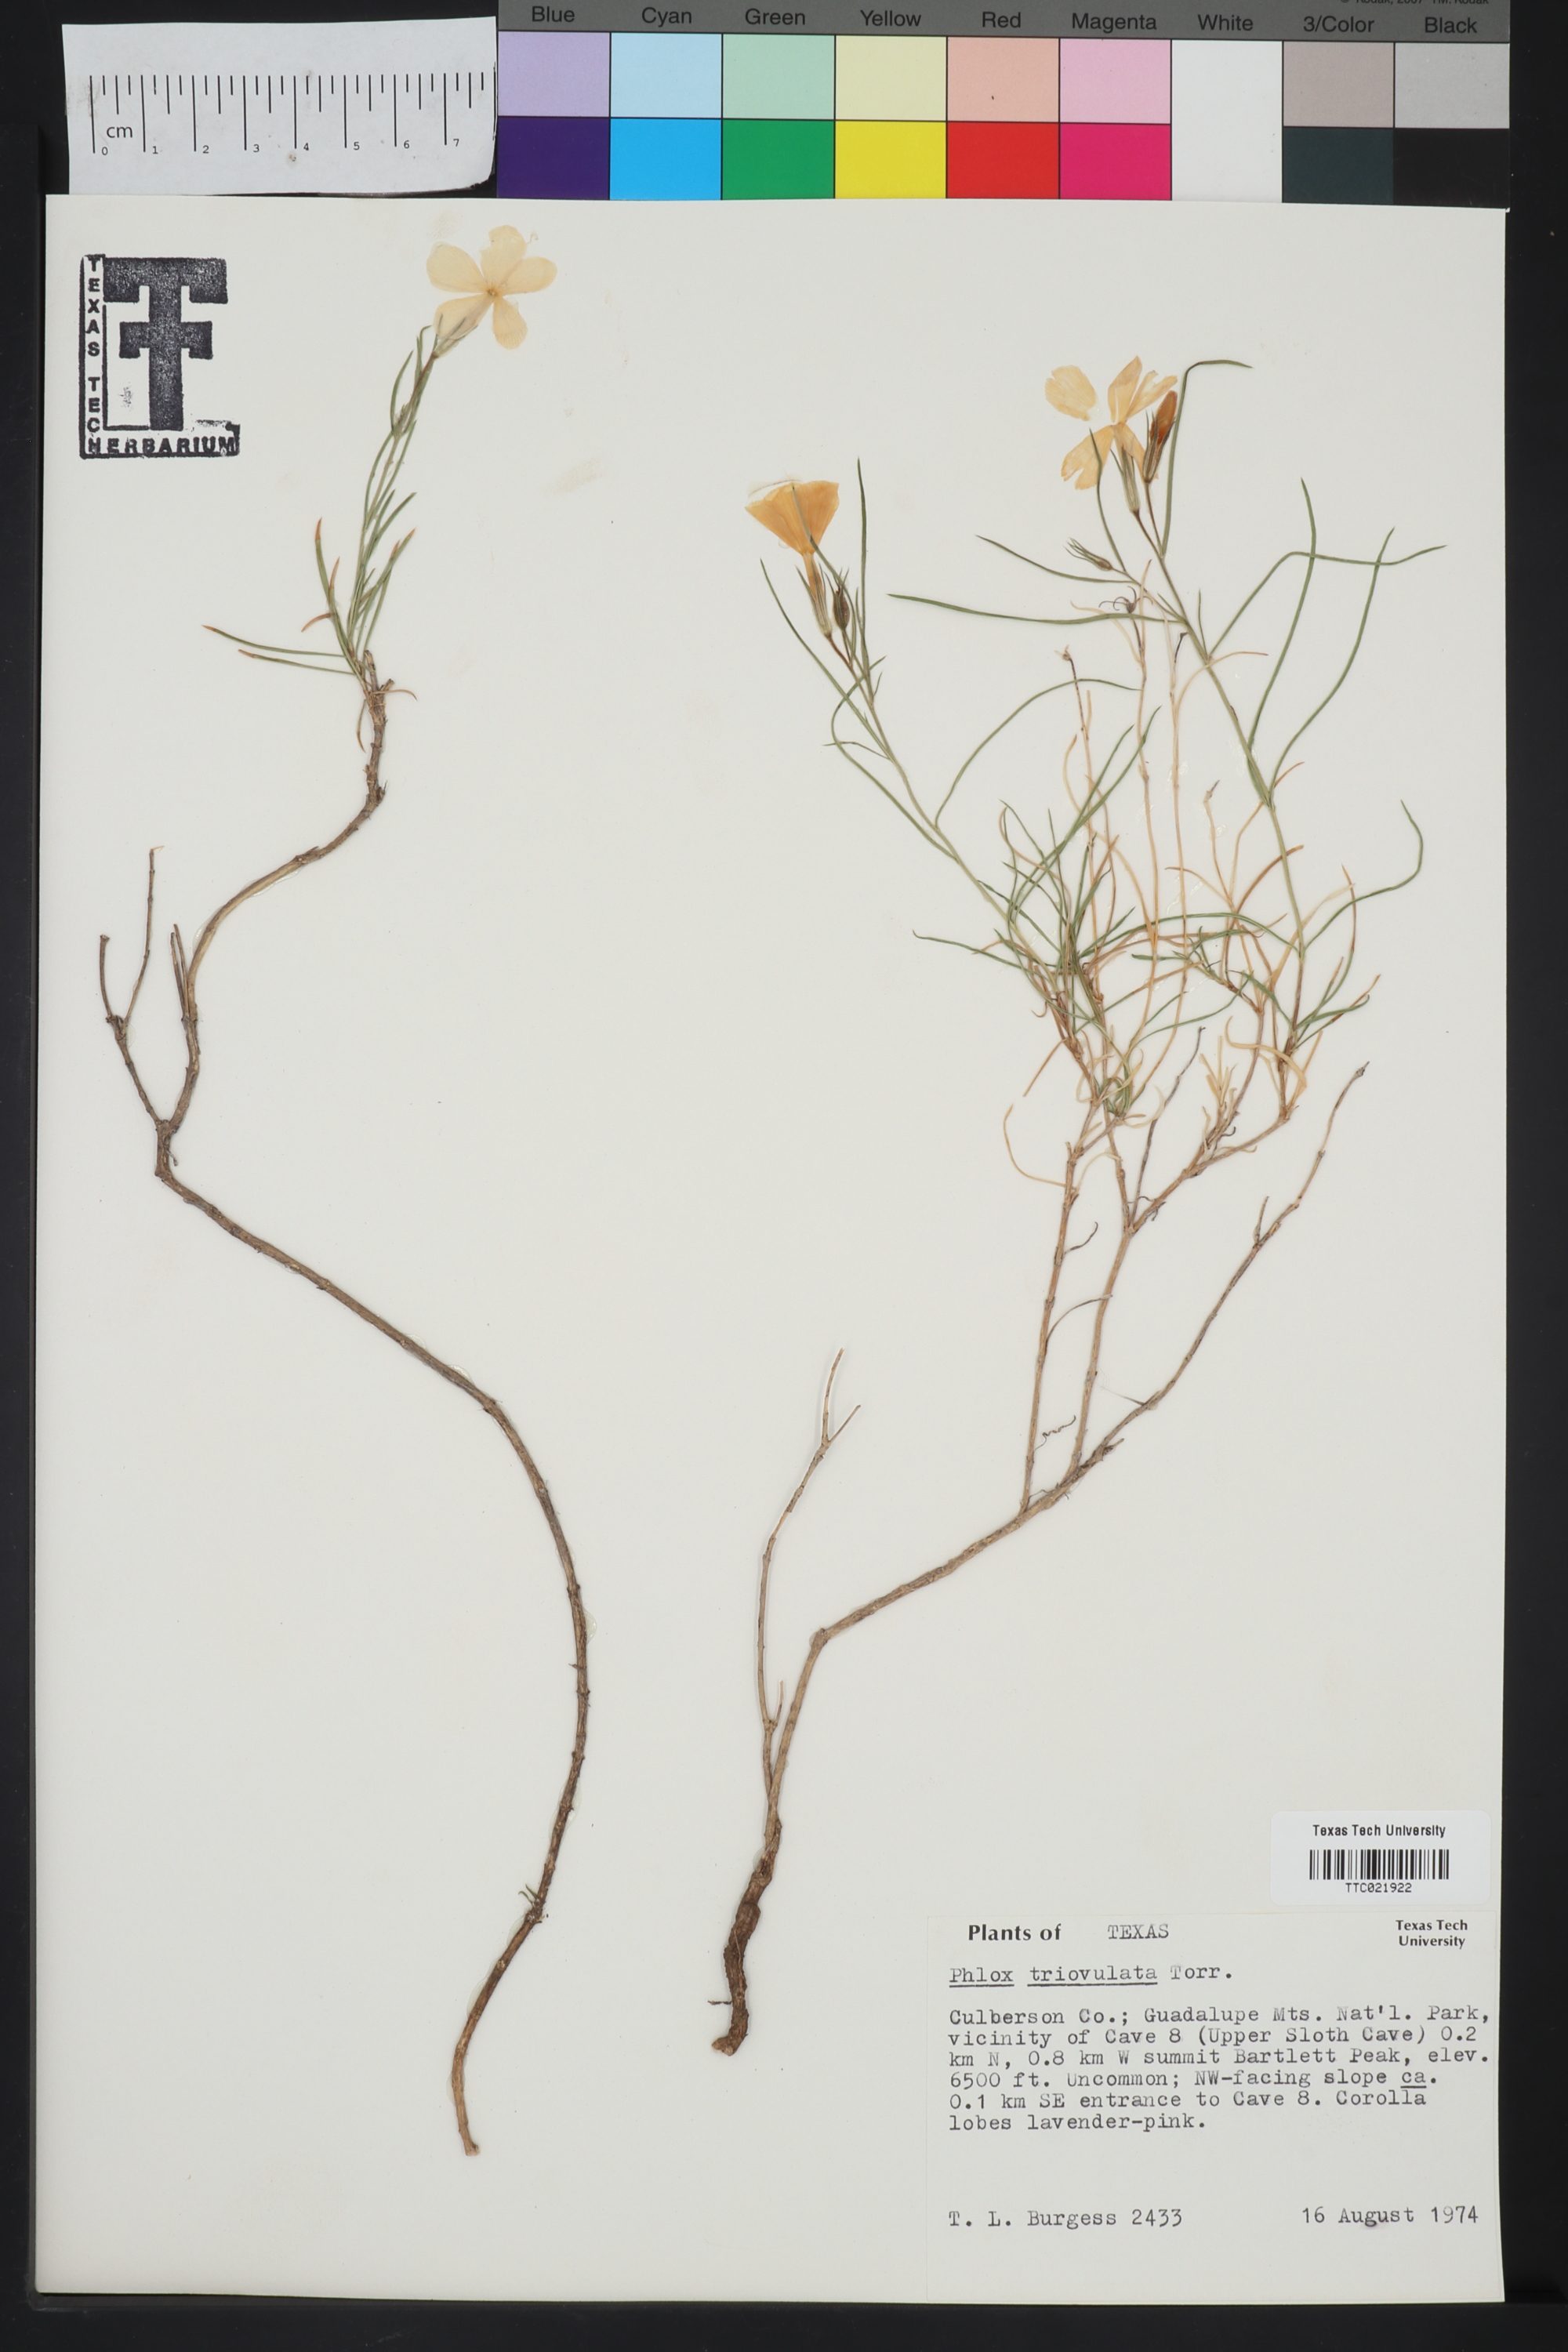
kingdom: Plantae
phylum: Tracheophyta
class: Magnoliopsida
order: Ericales
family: Polemoniaceae
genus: Phlox
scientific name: Phlox triovulata
